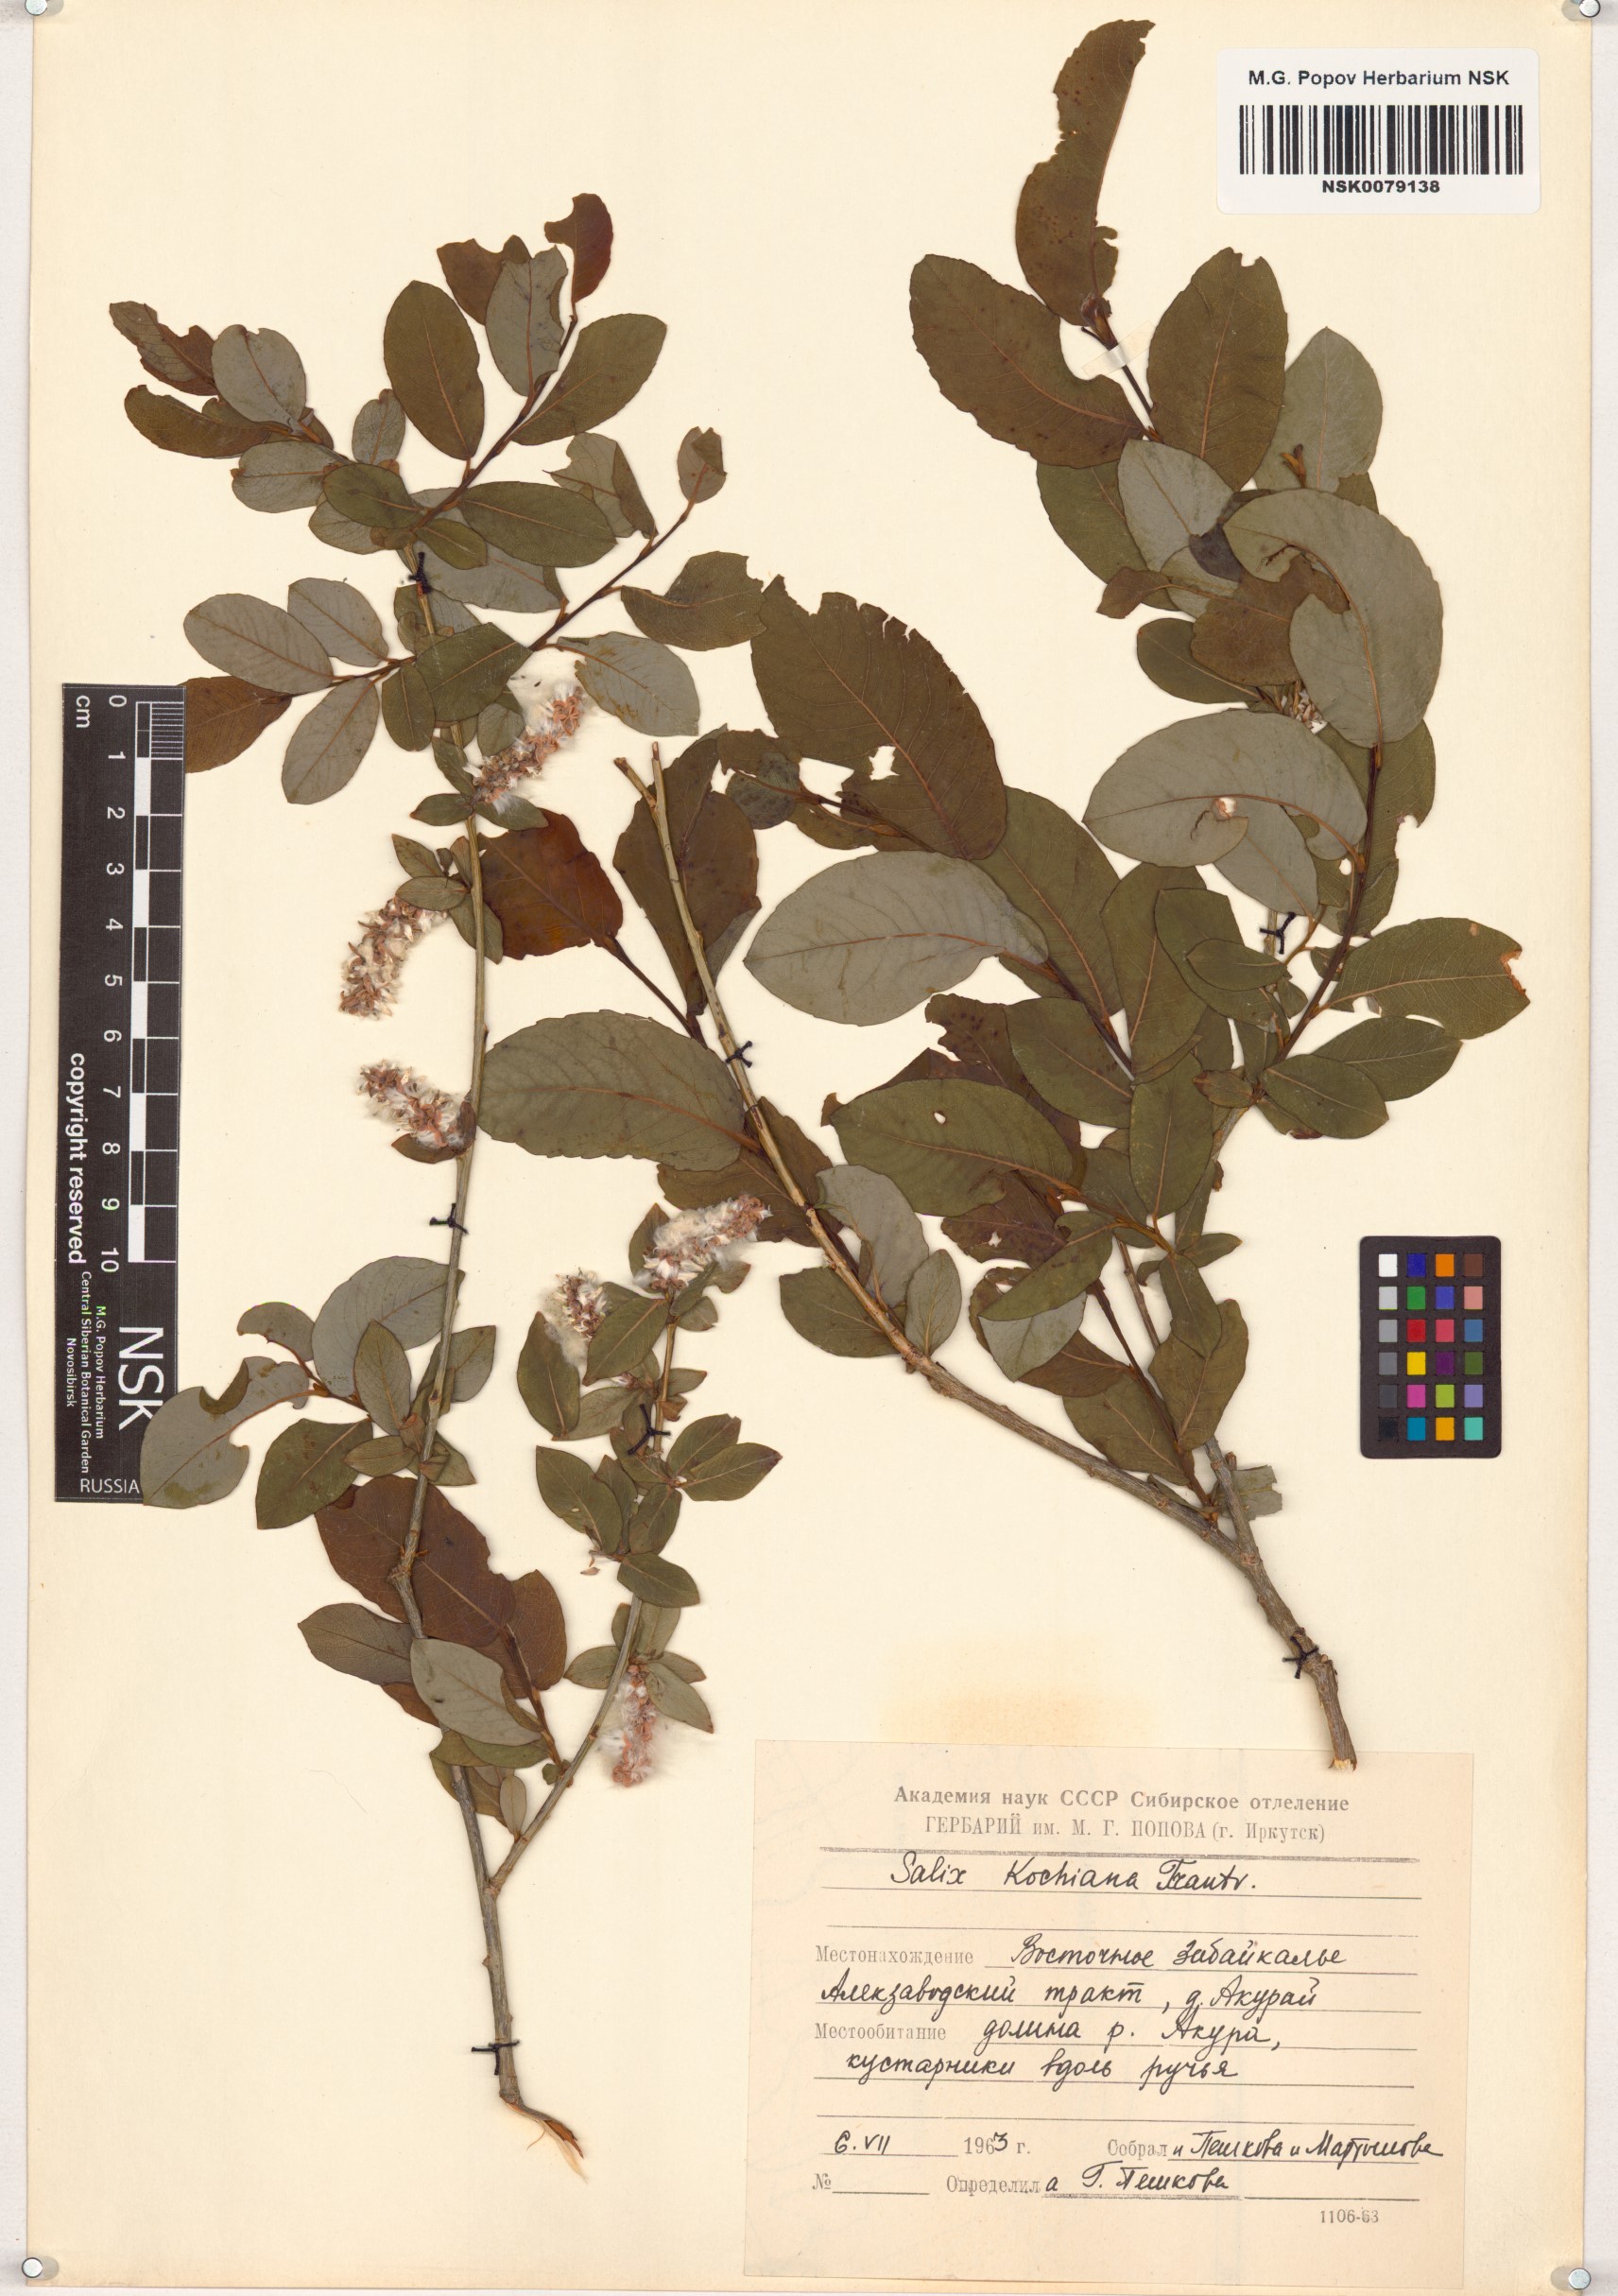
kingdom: Plantae
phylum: Tracheophyta
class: Magnoliopsida
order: Malpighiales
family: Salicaceae
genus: Salix
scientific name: Salix kochiana
